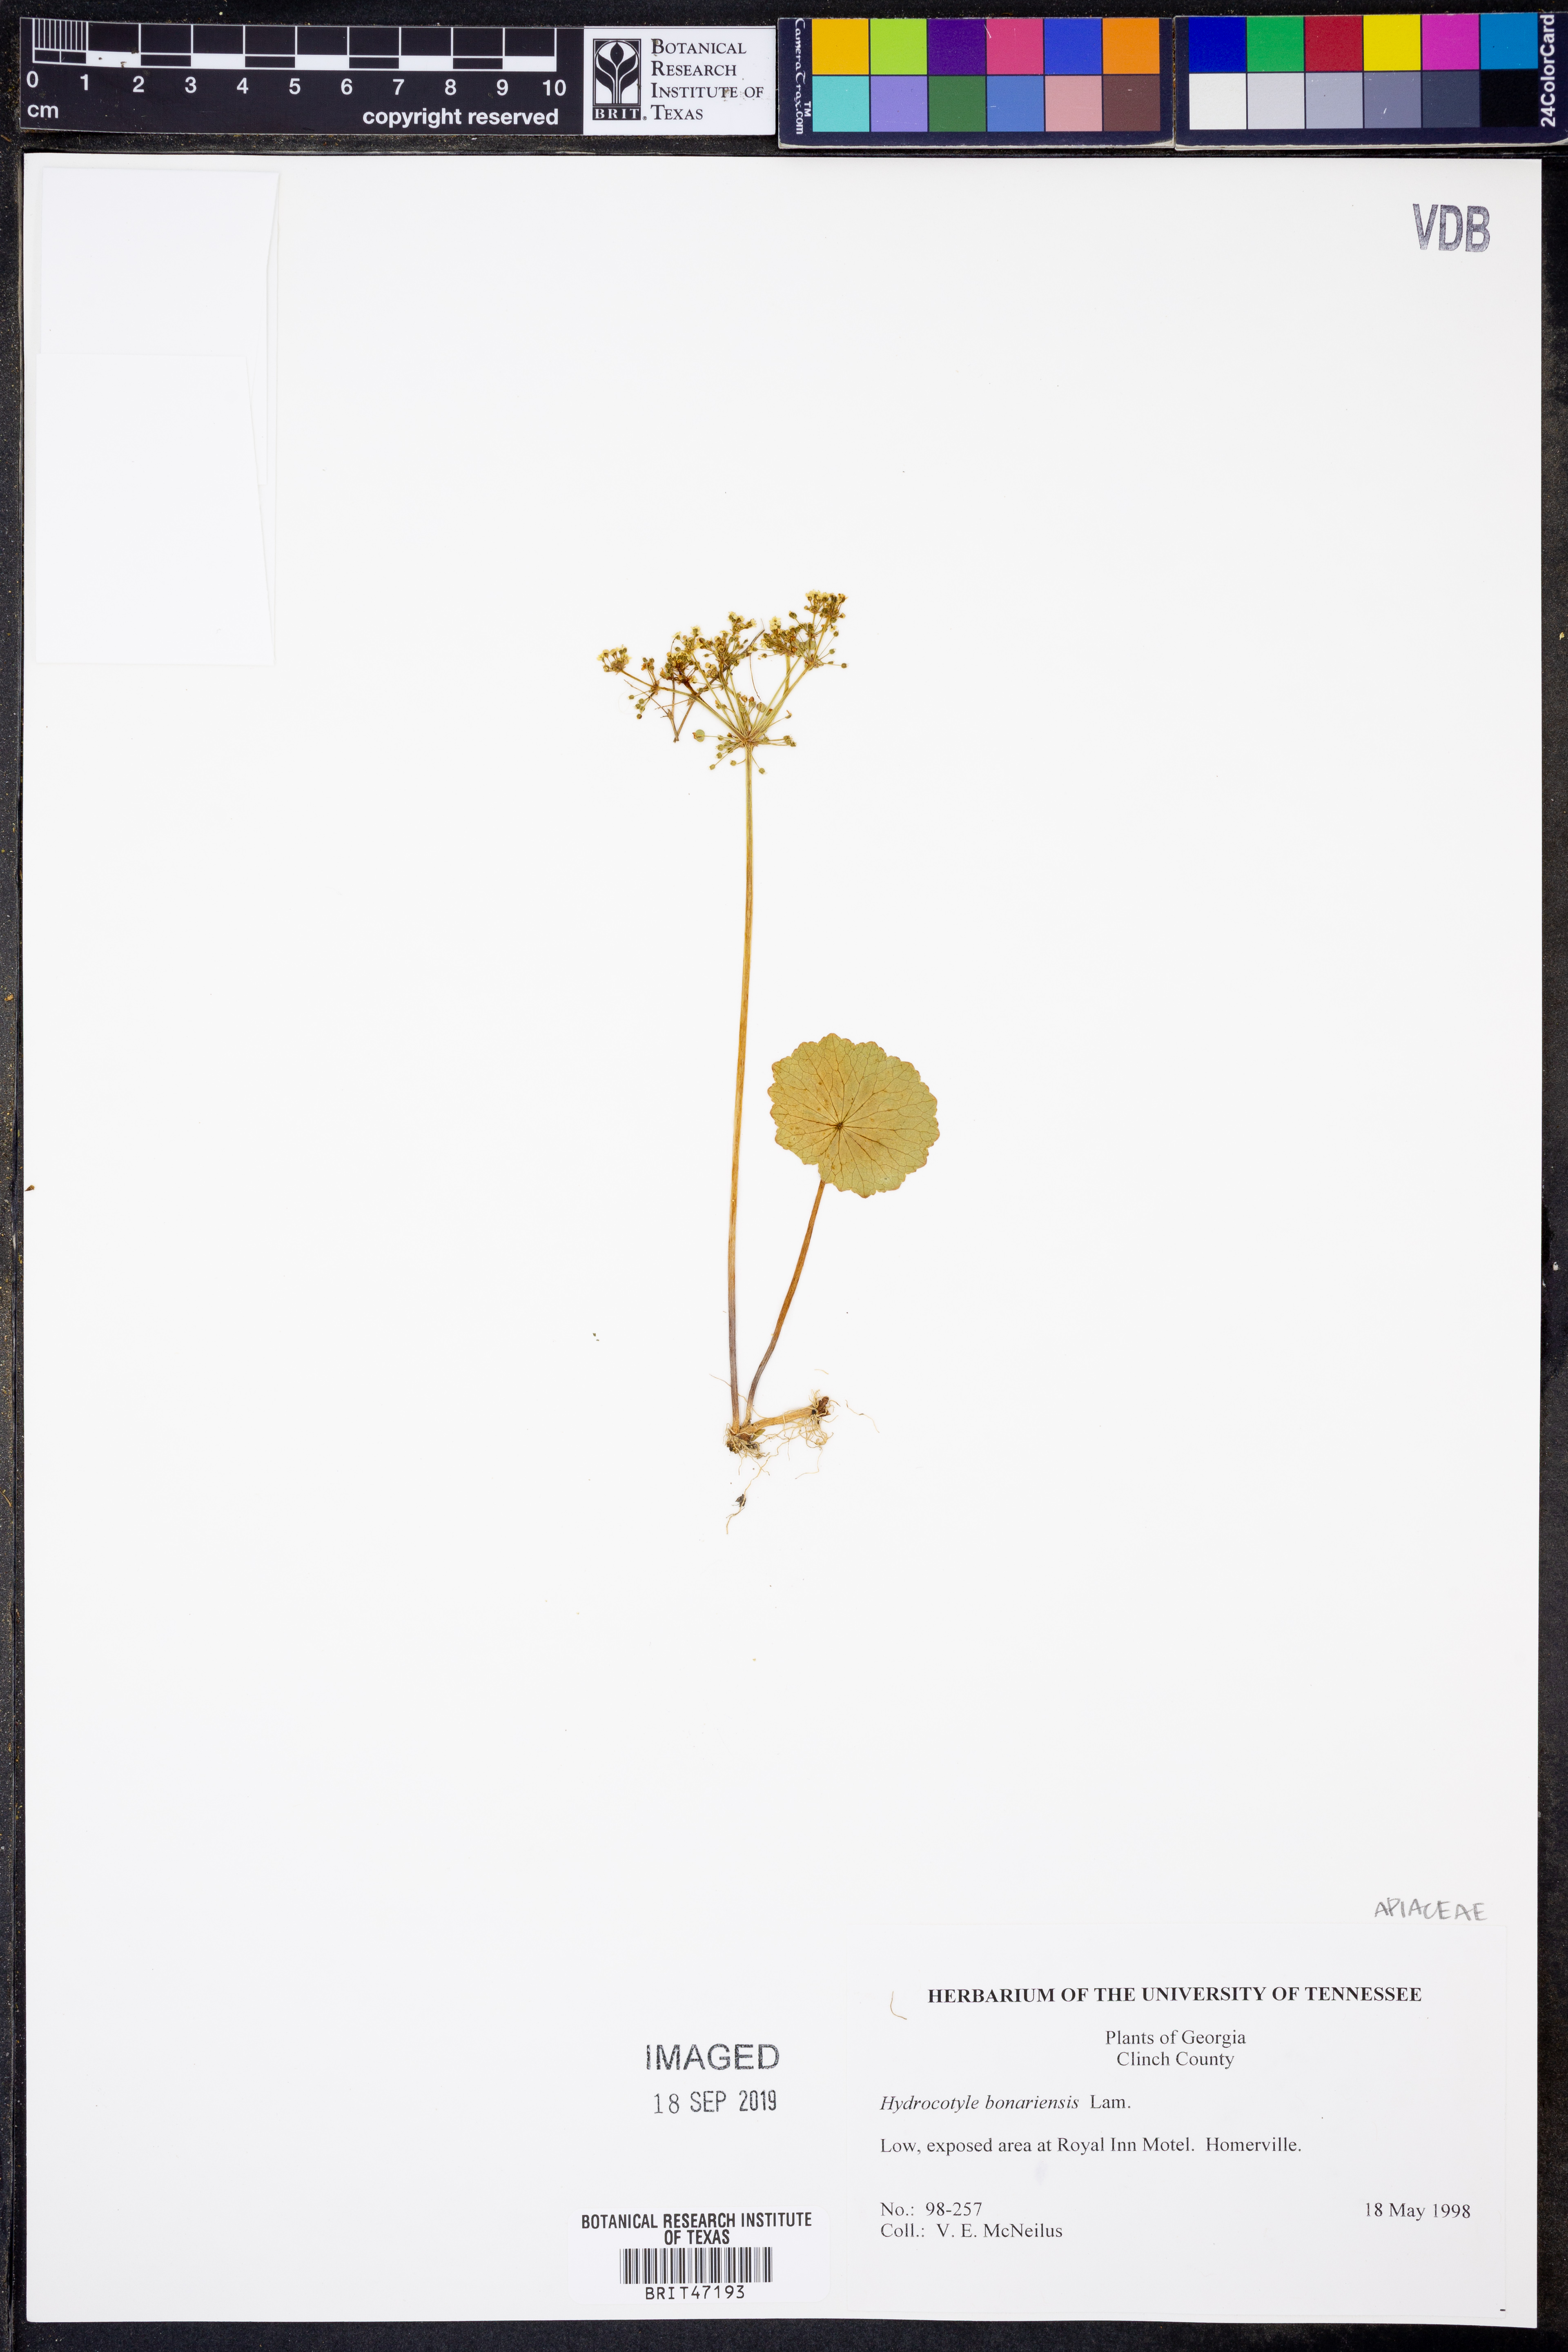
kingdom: Plantae
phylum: Tracheophyta
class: Magnoliopsida
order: Apiales
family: Araliaceae
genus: Hydrocotyle
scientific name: Hydrocotyle bonariensis
